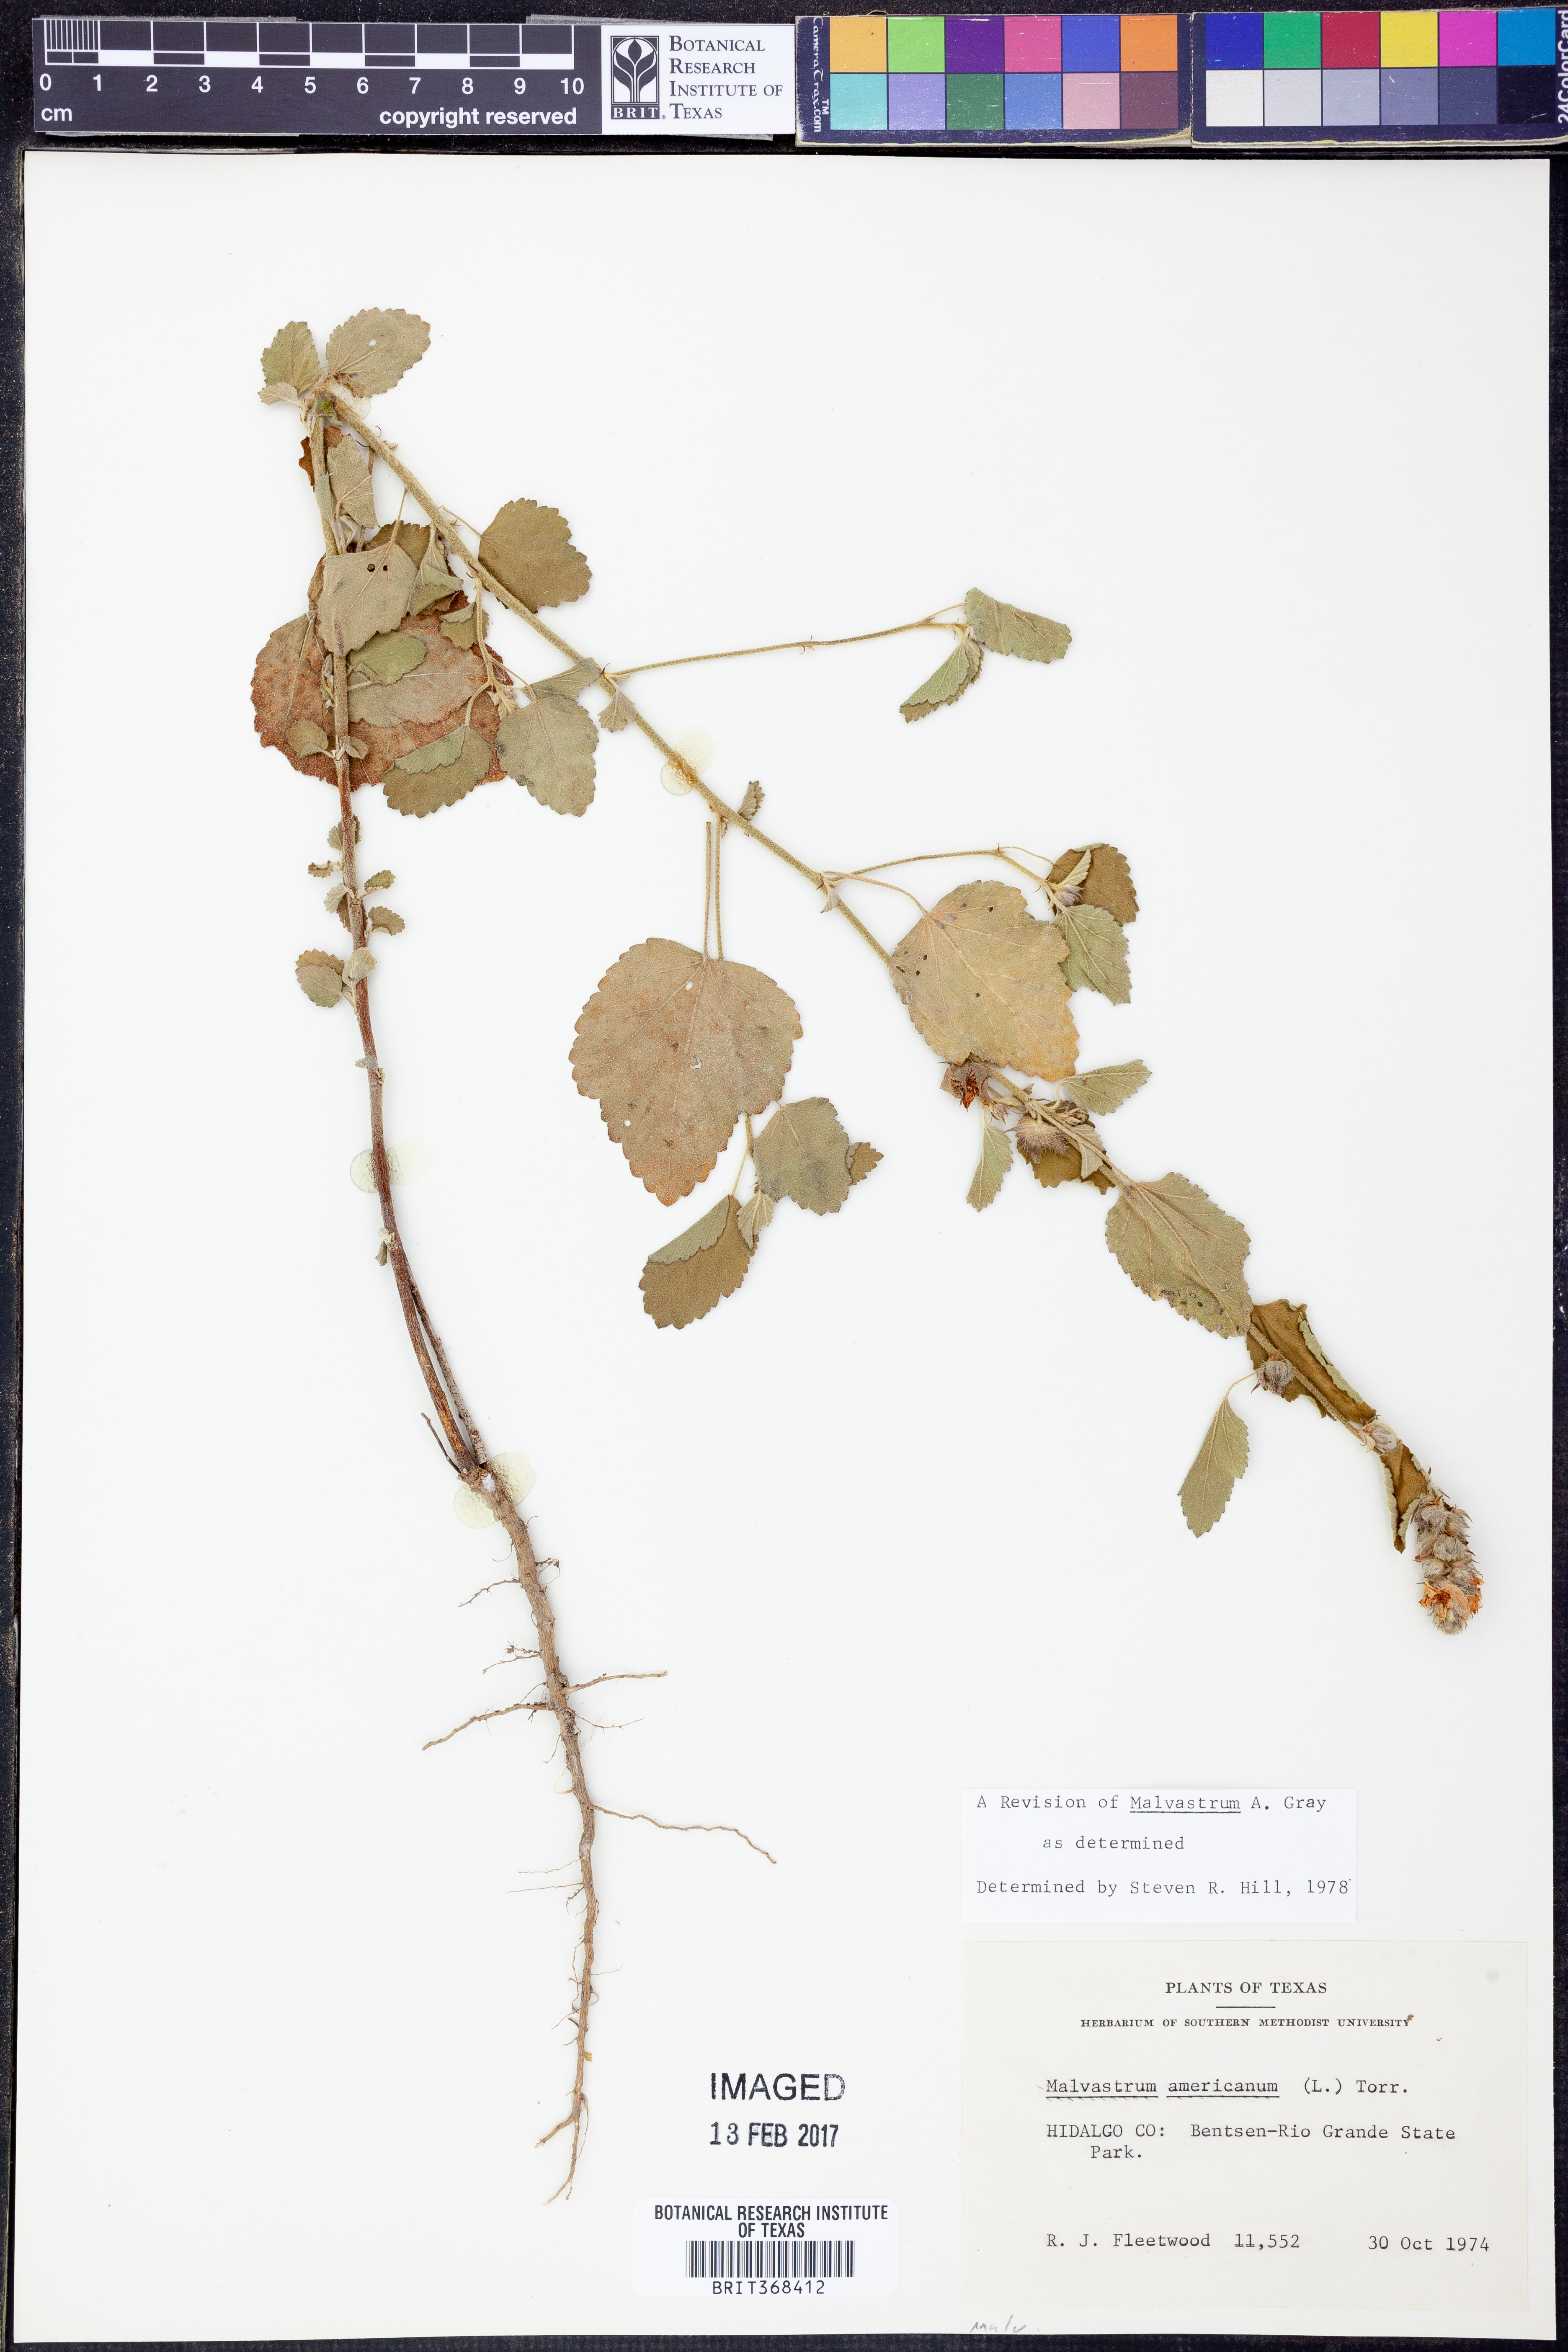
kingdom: Plantae
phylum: Tracheophyta
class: Magnoliopsida
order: Malvales
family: Malvaceae
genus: Malvastrum
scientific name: Malvastrum americanum
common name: Spiked malvastrum
